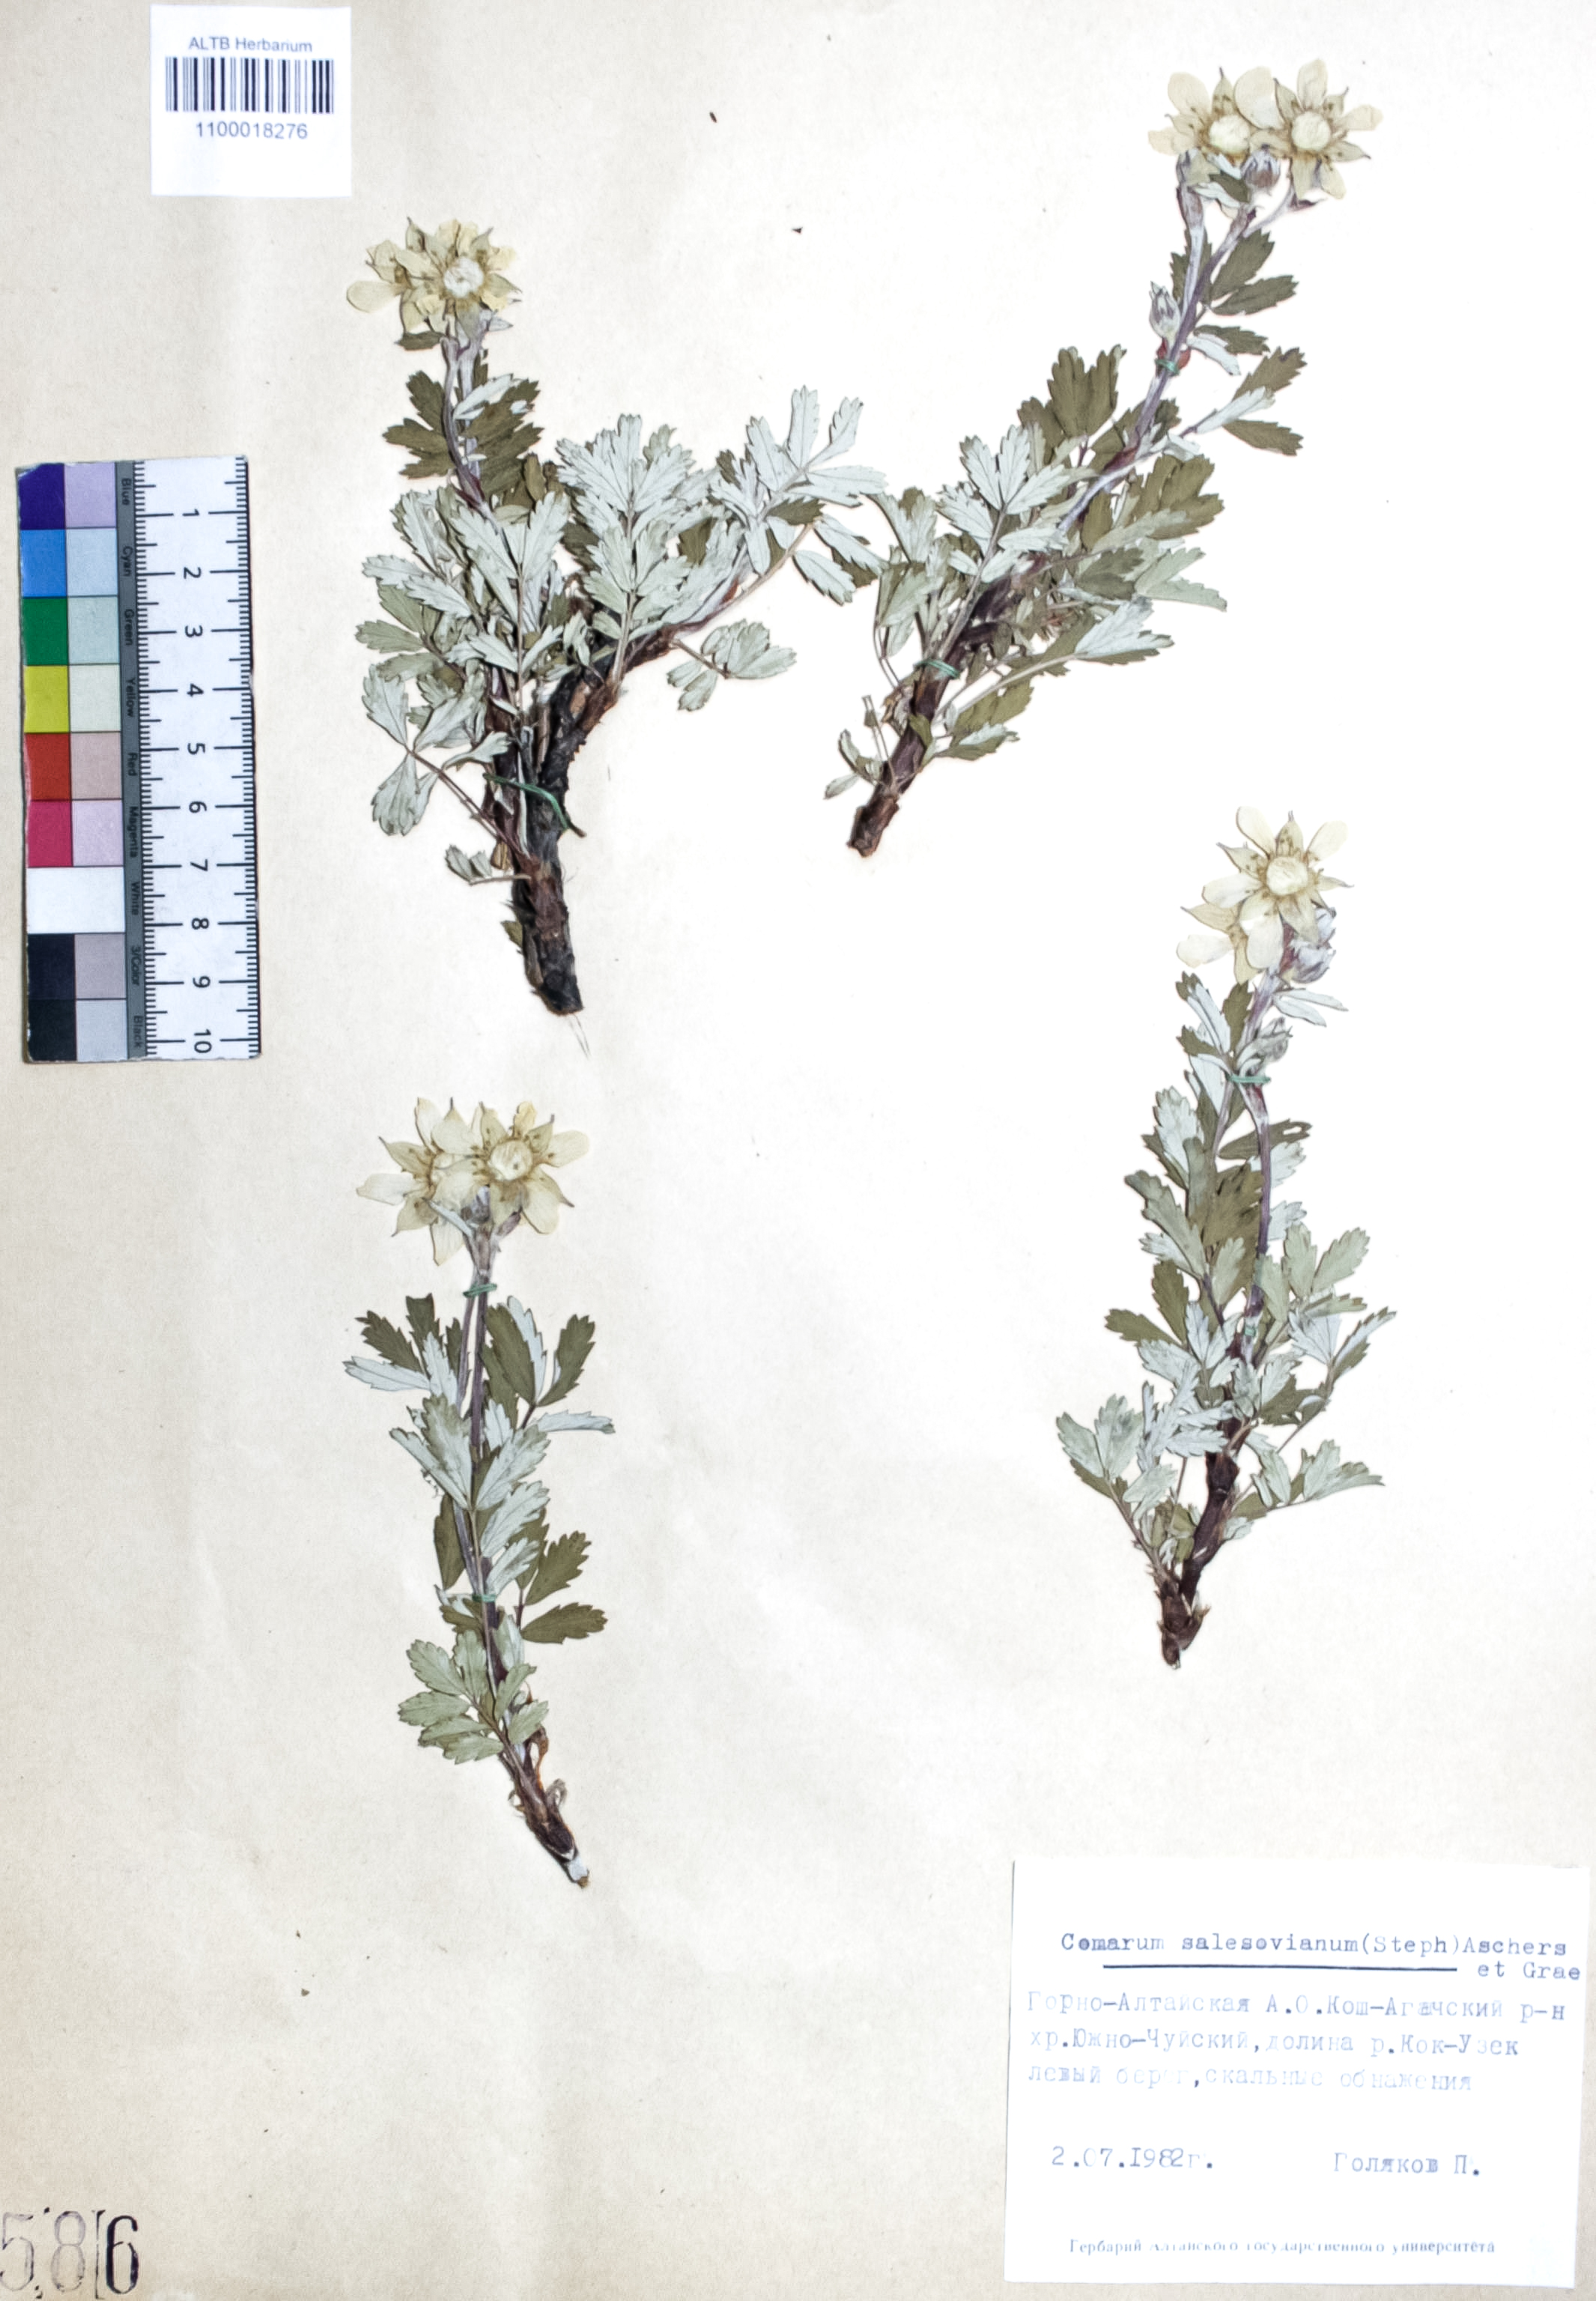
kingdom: Plantae
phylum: Tracheophyta
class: Magnoliopsida
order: Rosales
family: Rosaceae
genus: Farinopsis
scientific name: Farinopsis salesoviana
